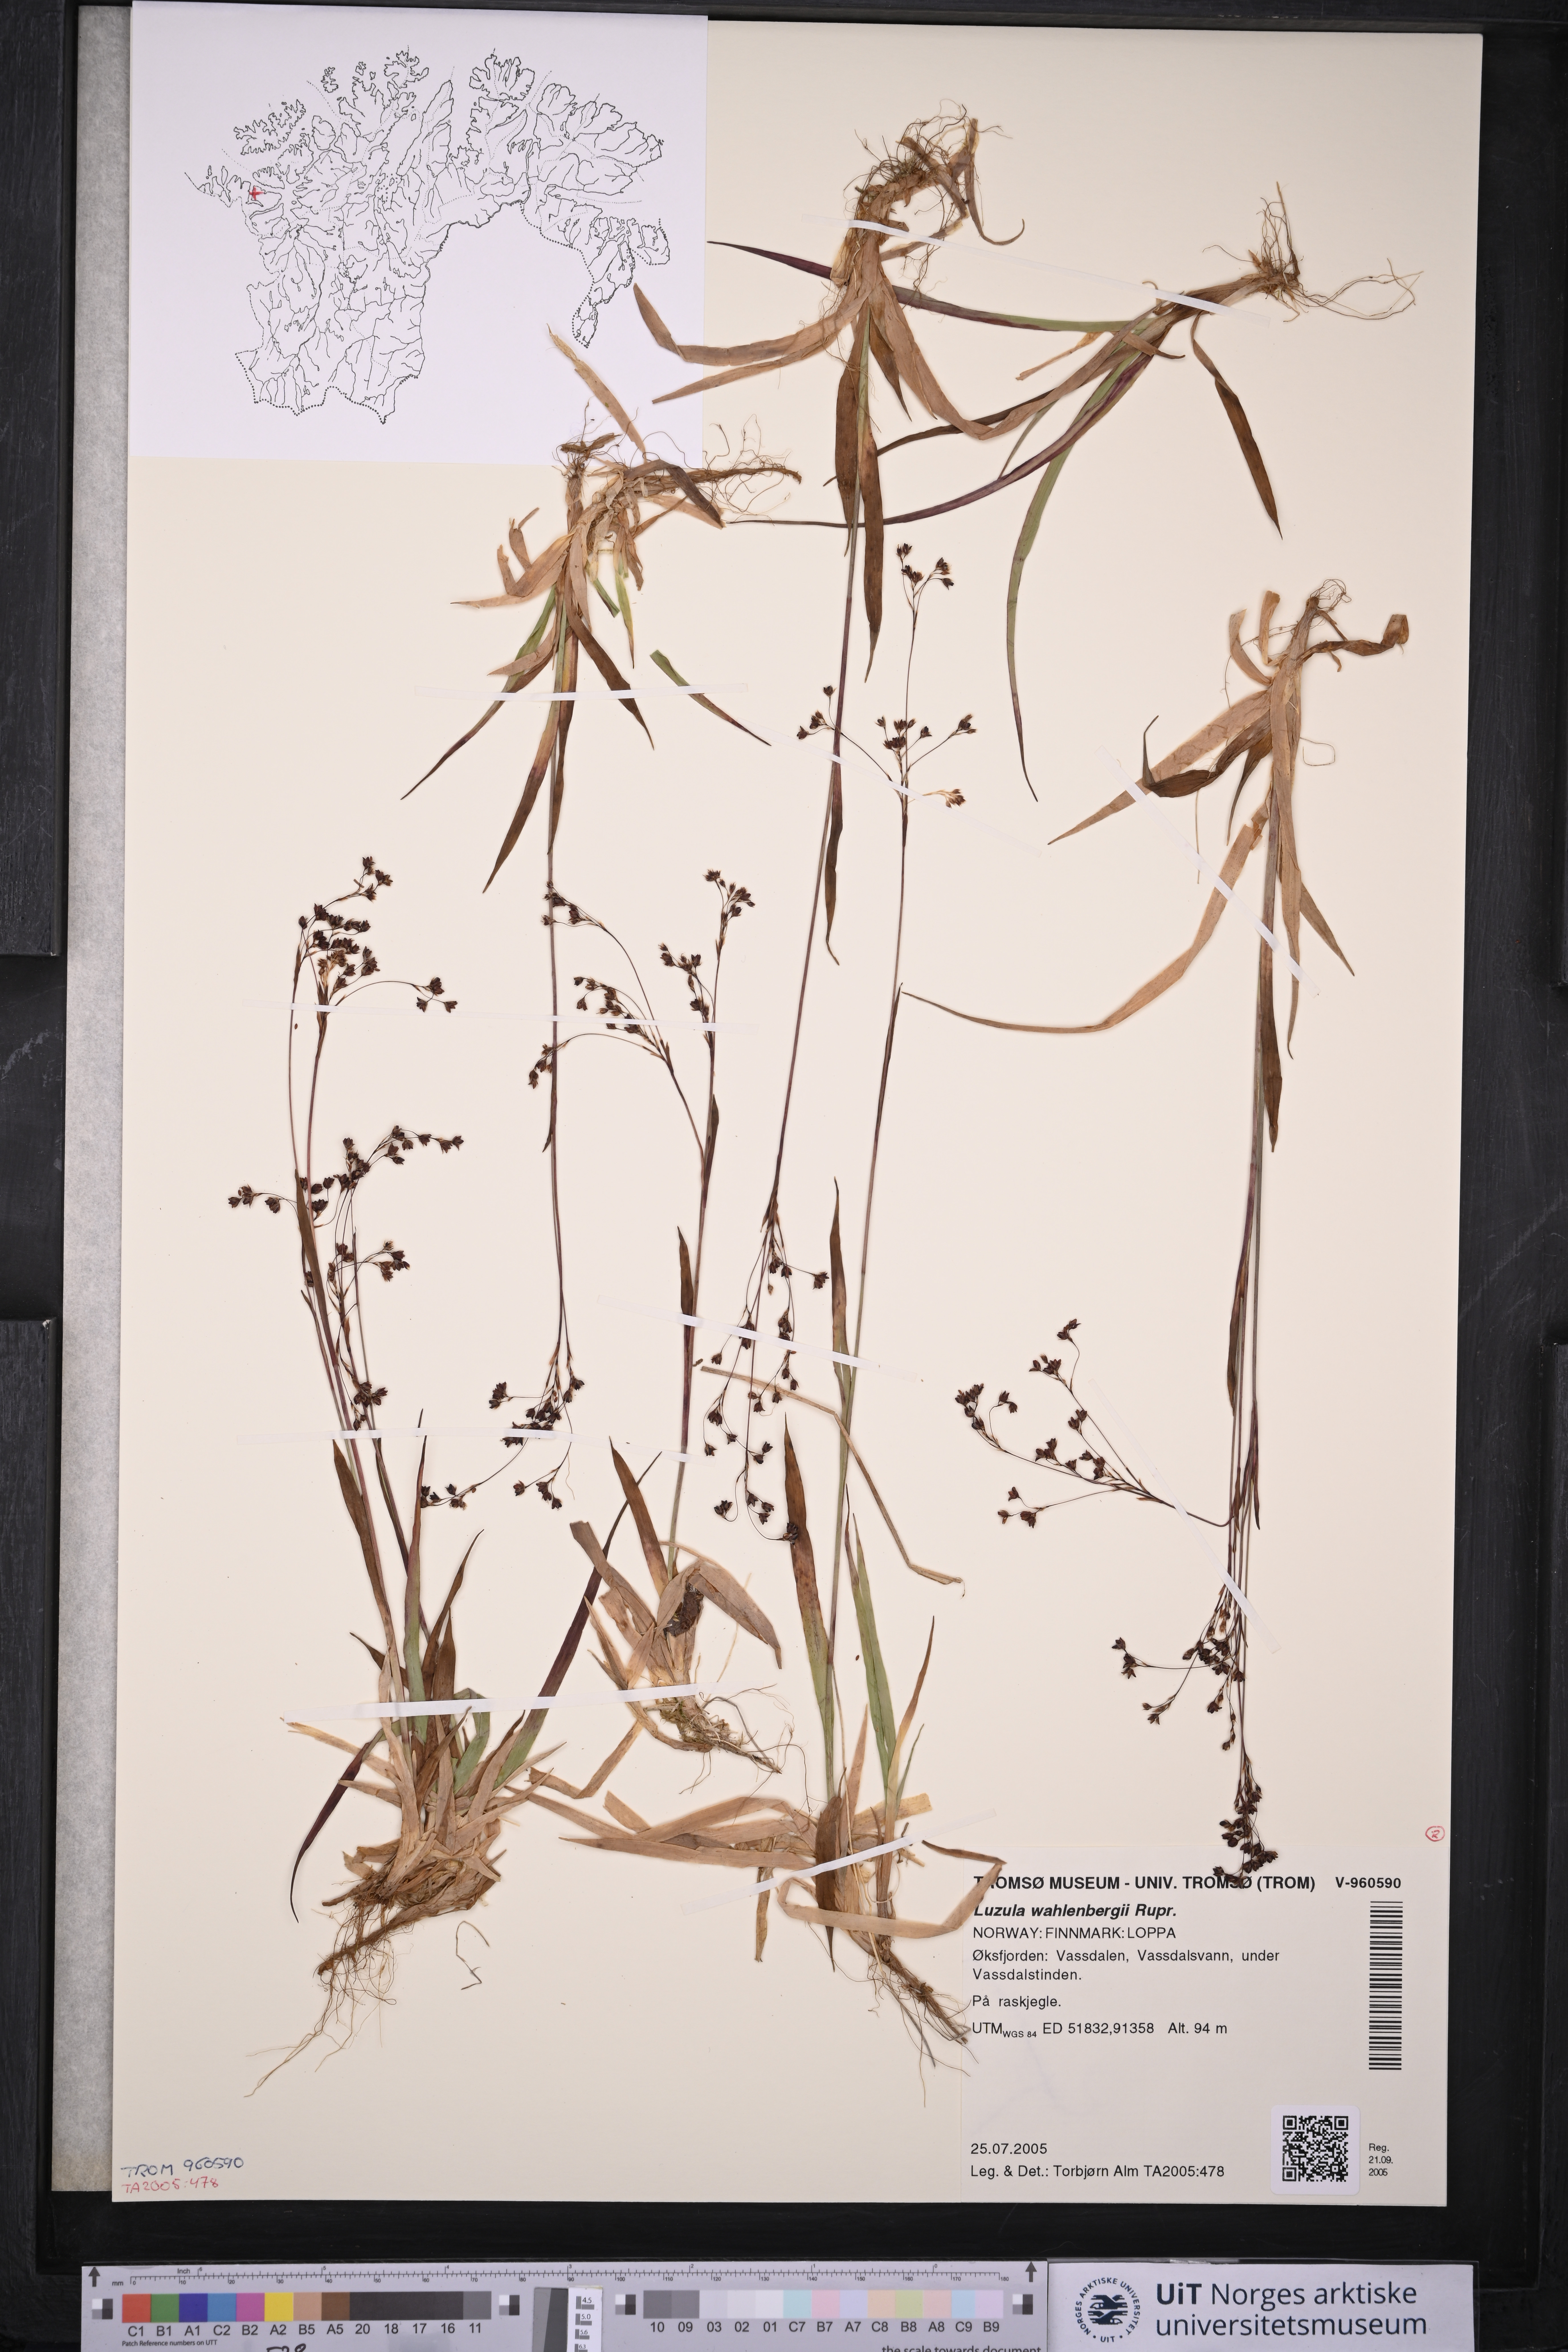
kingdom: Plantae
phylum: Tracheophyta
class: Liliopsida
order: Poales
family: Juncaceae
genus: Luzula
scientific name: Luzula wahlenbergii
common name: Wahlenberg's wood-rush
